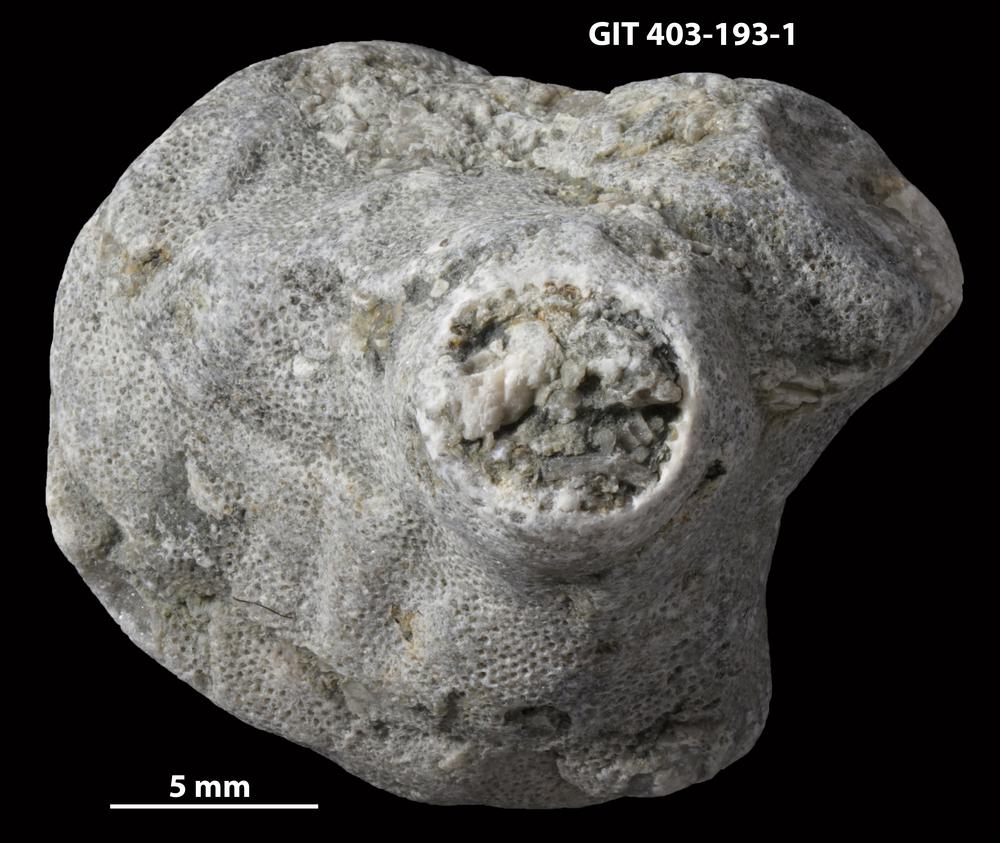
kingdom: Animalia
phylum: Cnidaria
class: Anthozoa
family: Tryplasmatidae
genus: Tryplasma
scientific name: Tryplasma
